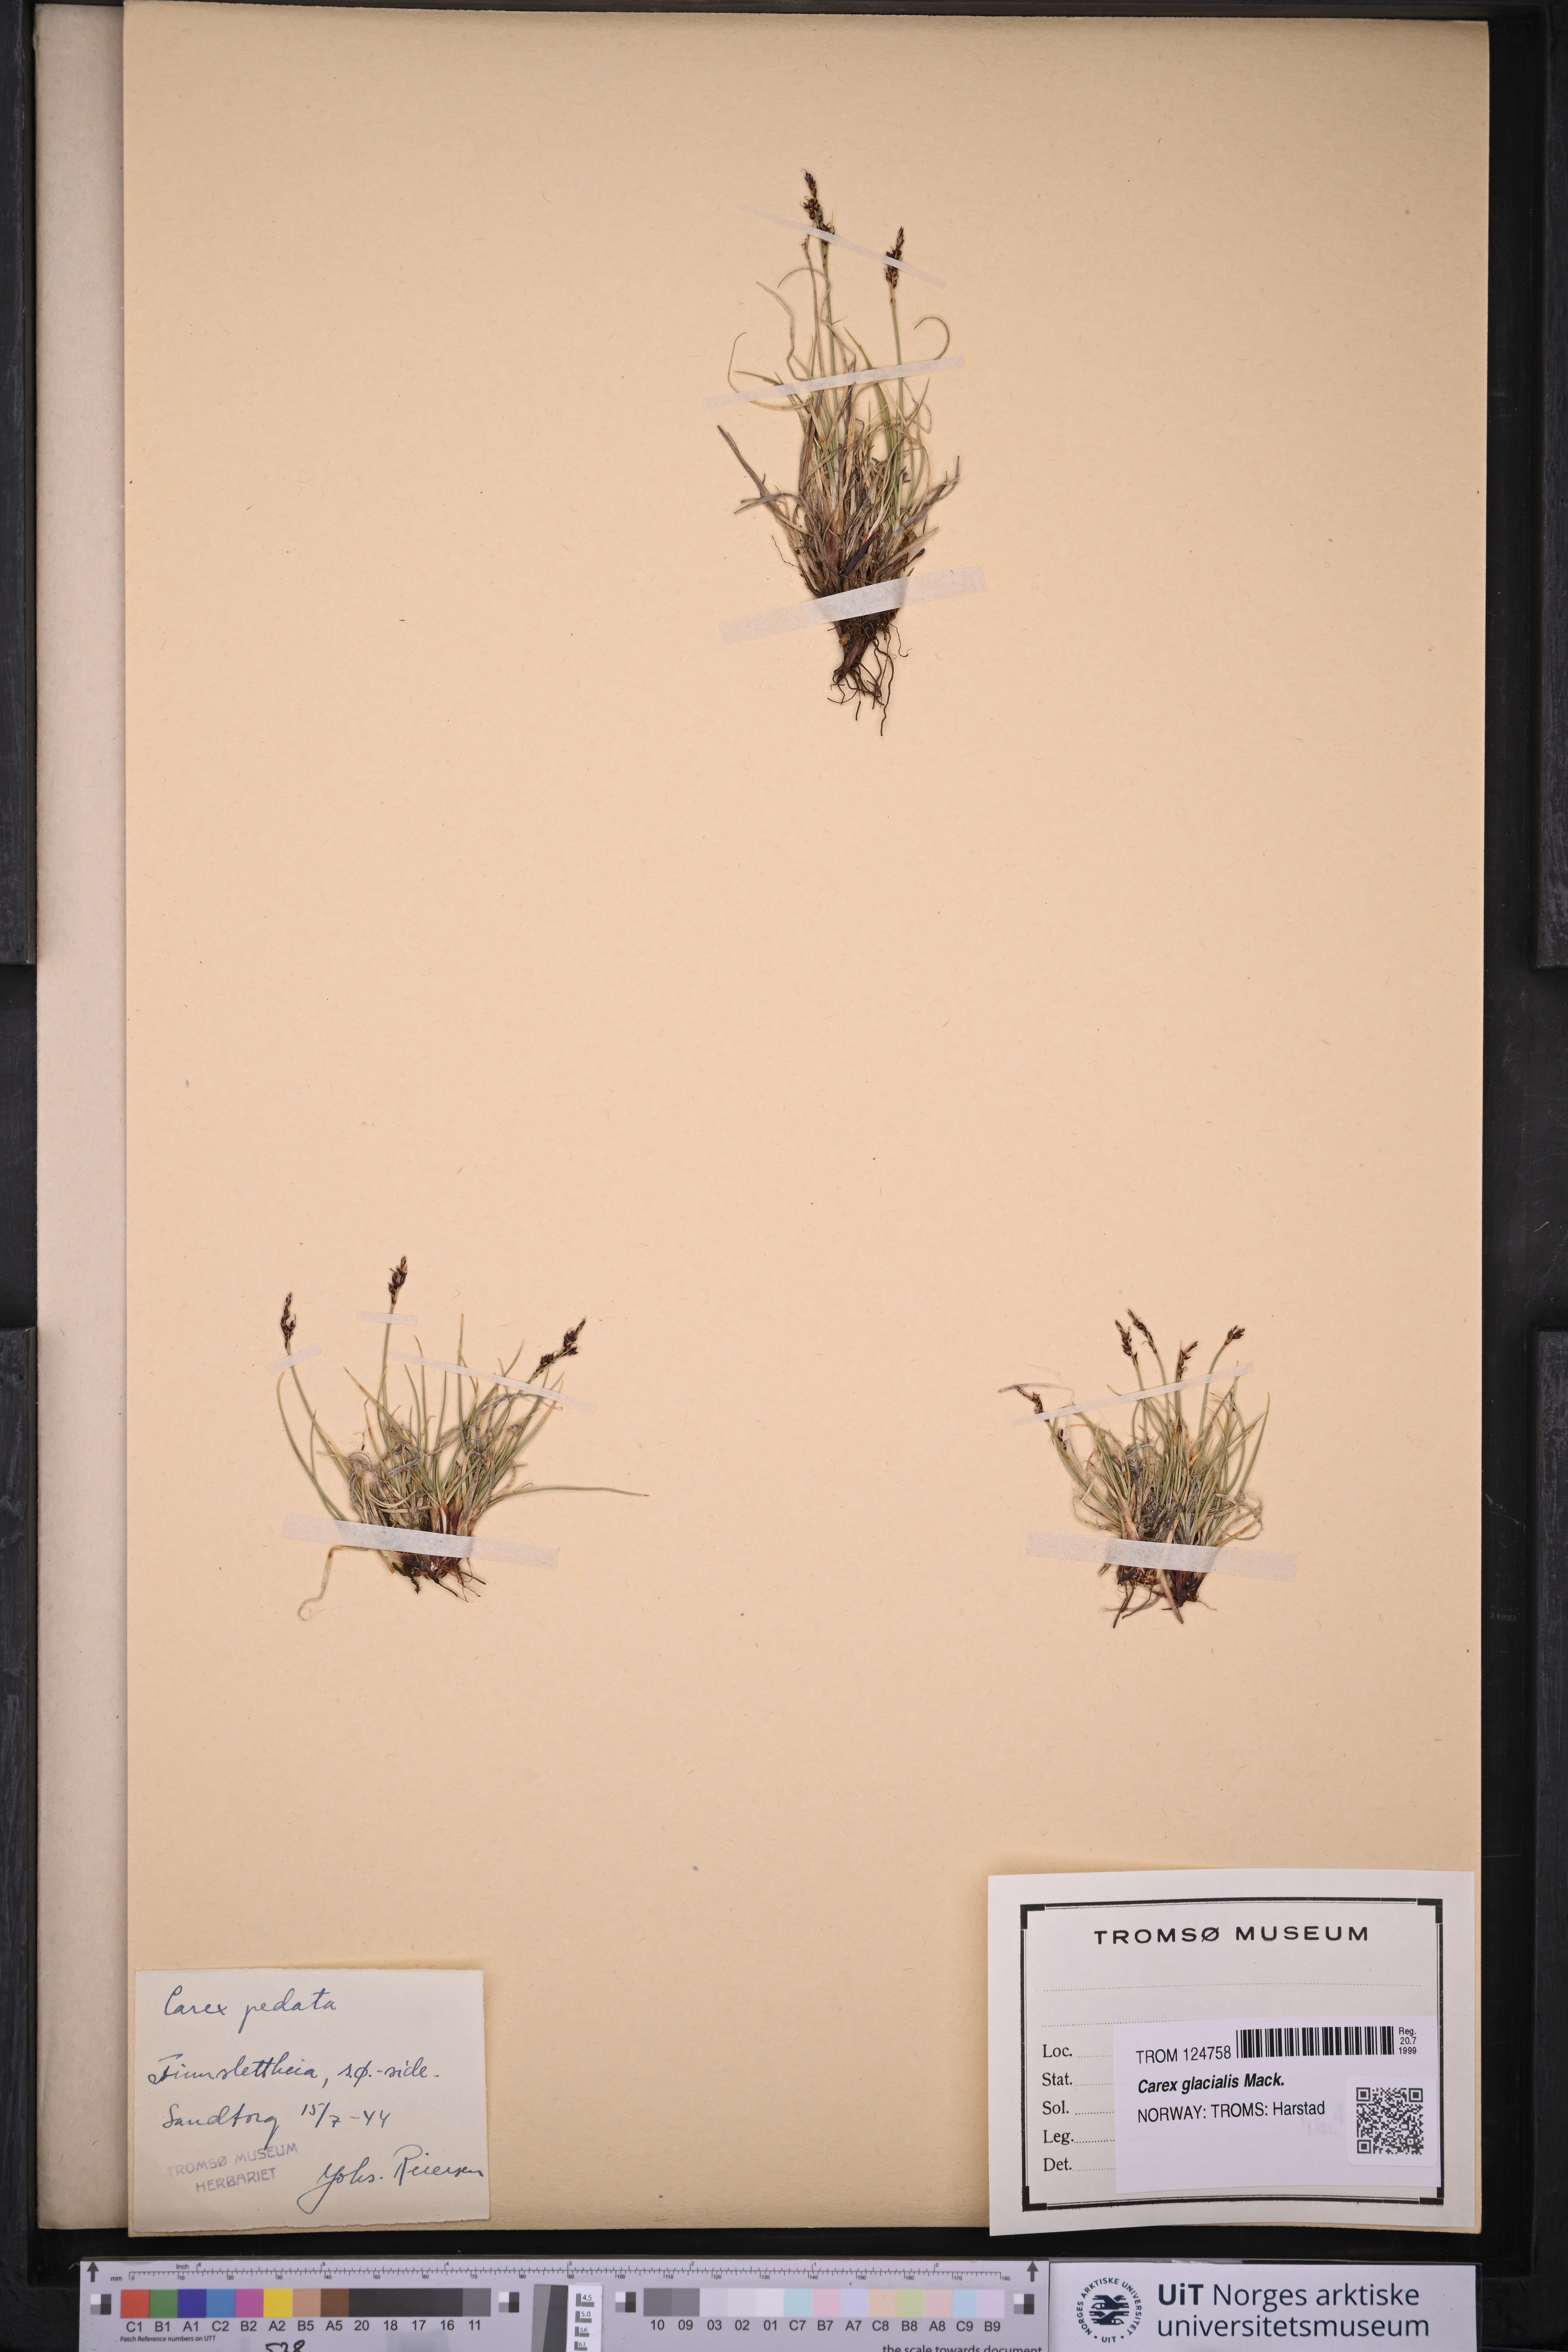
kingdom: Plantae
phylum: Tracheophyta
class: Liliopsida
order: Poales
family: Cyperaceae
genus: Carex
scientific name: Carex glacialis
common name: Newfoundland sedge
